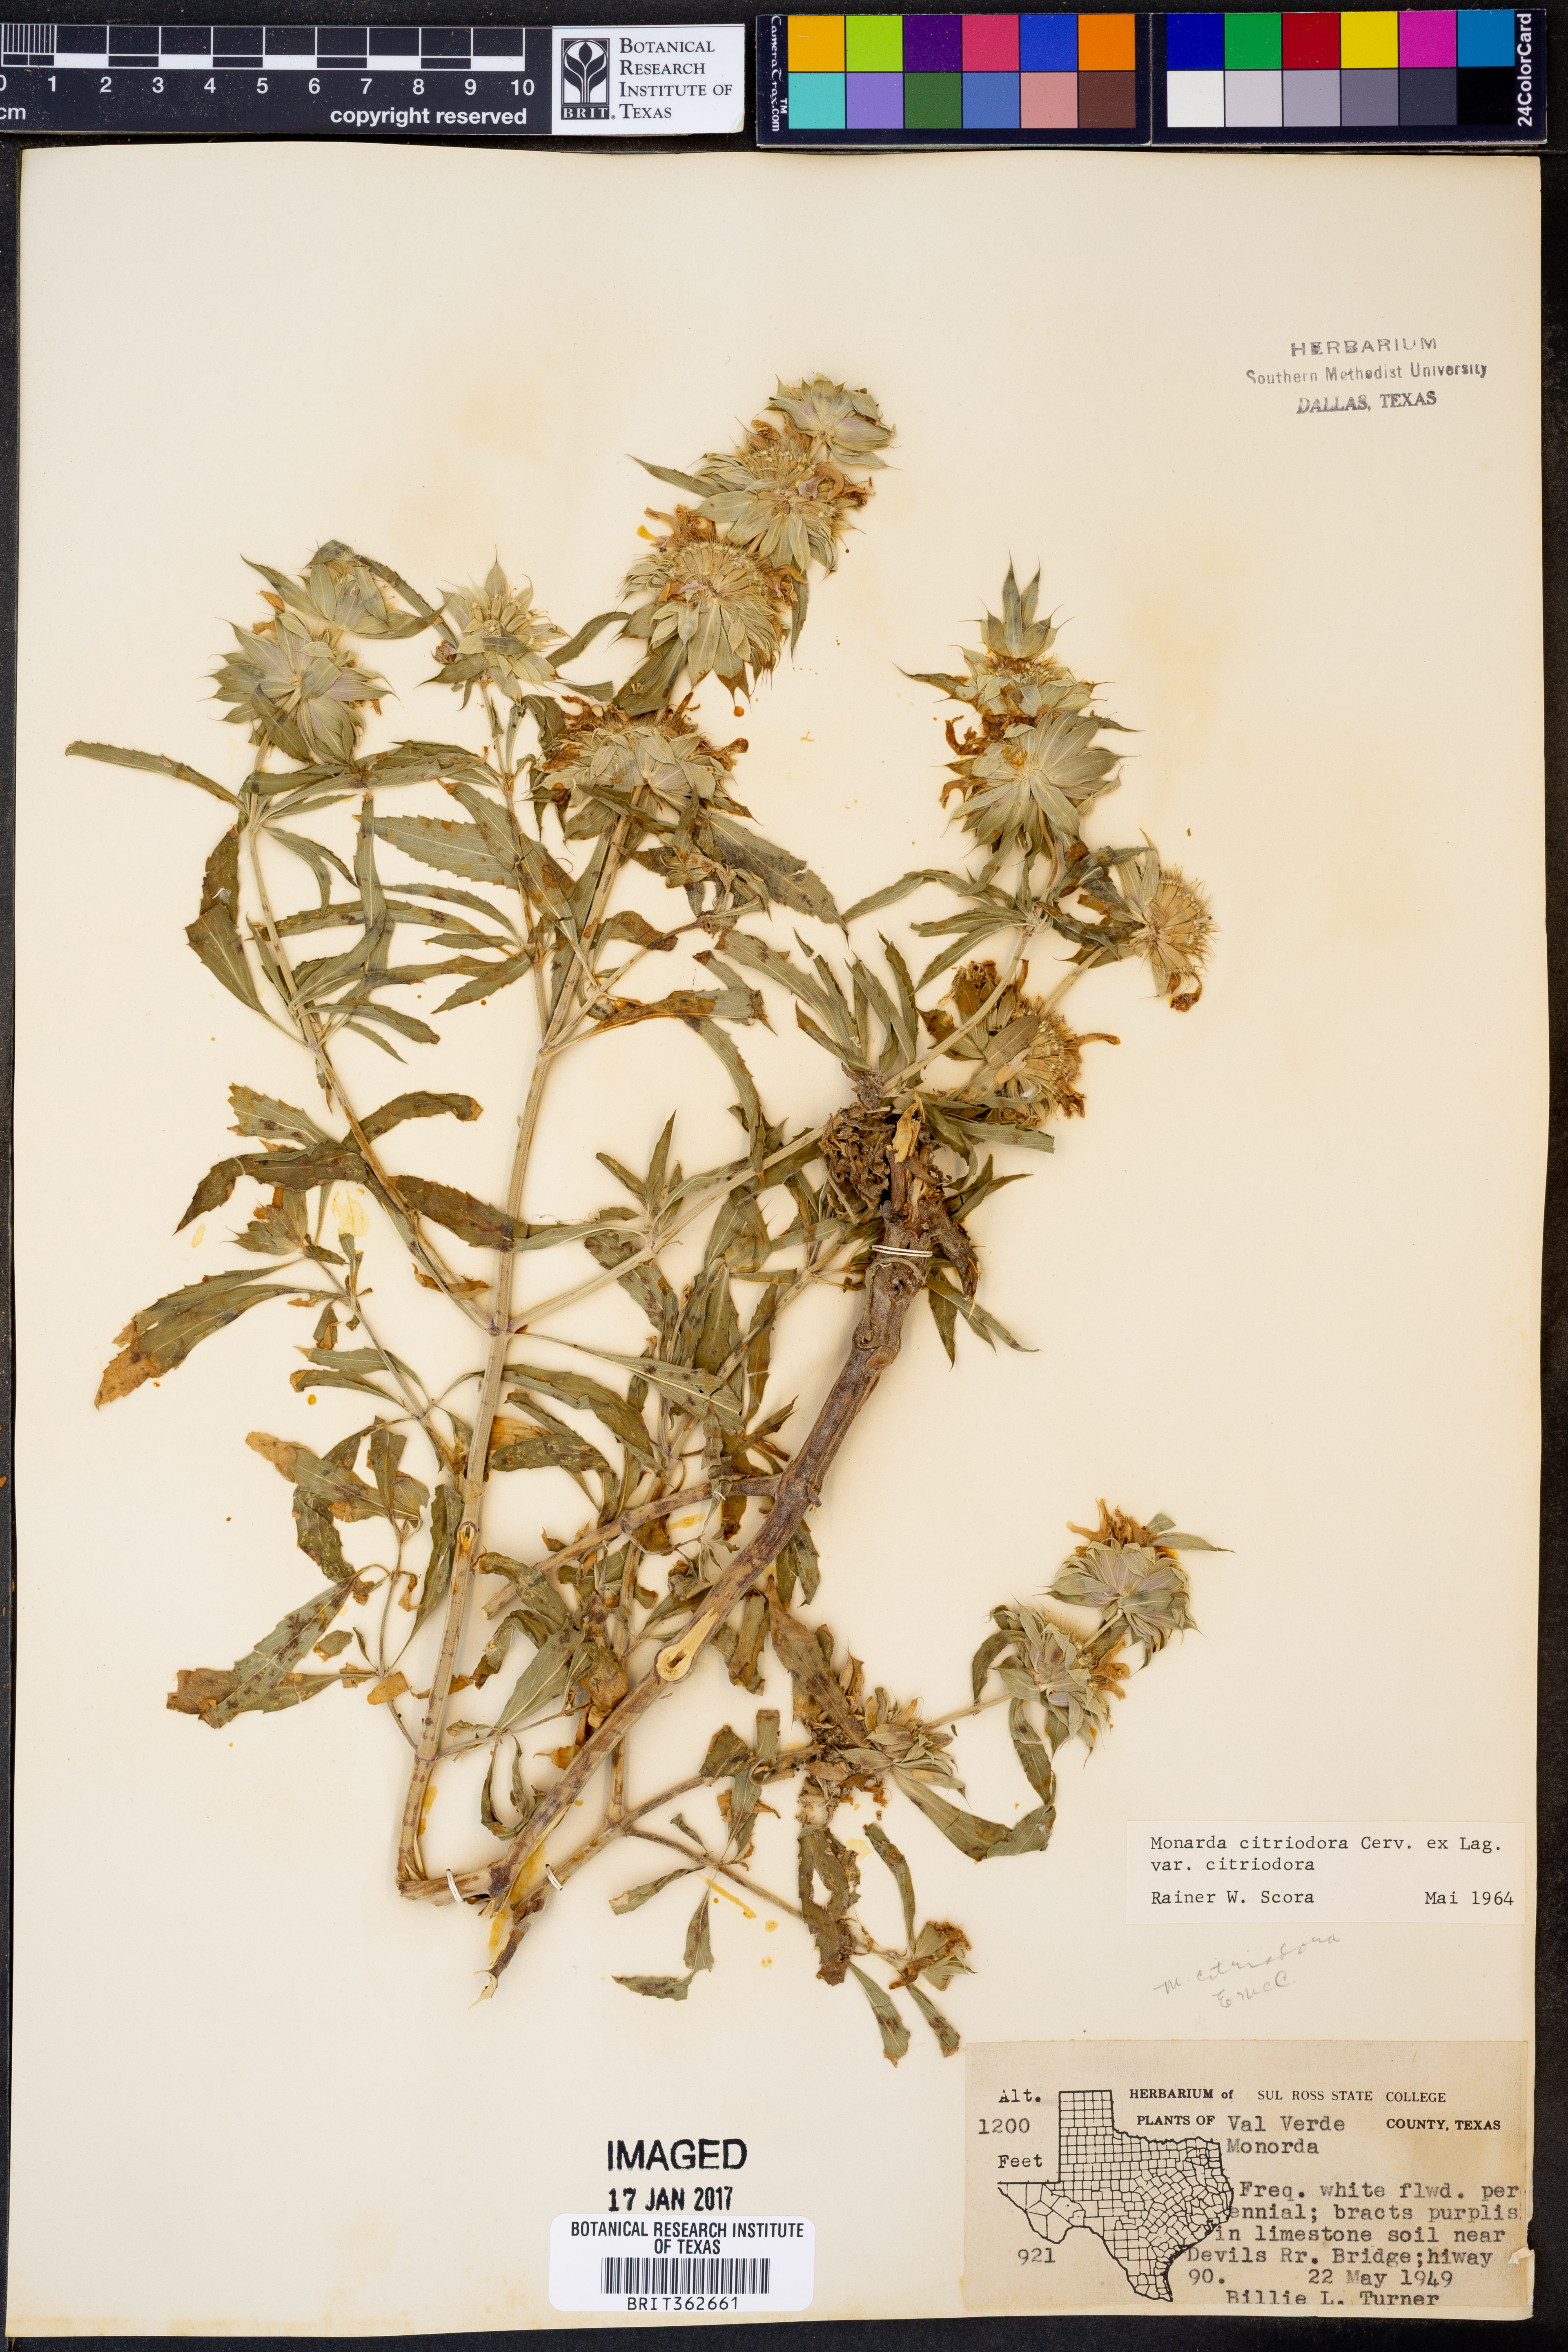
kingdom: Plantae
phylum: Tracheophyta
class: Magnoliopsida
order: Lamiales
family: Lamiaceae
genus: Monarda
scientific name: Monarda citriodora
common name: Lemon beebalm
